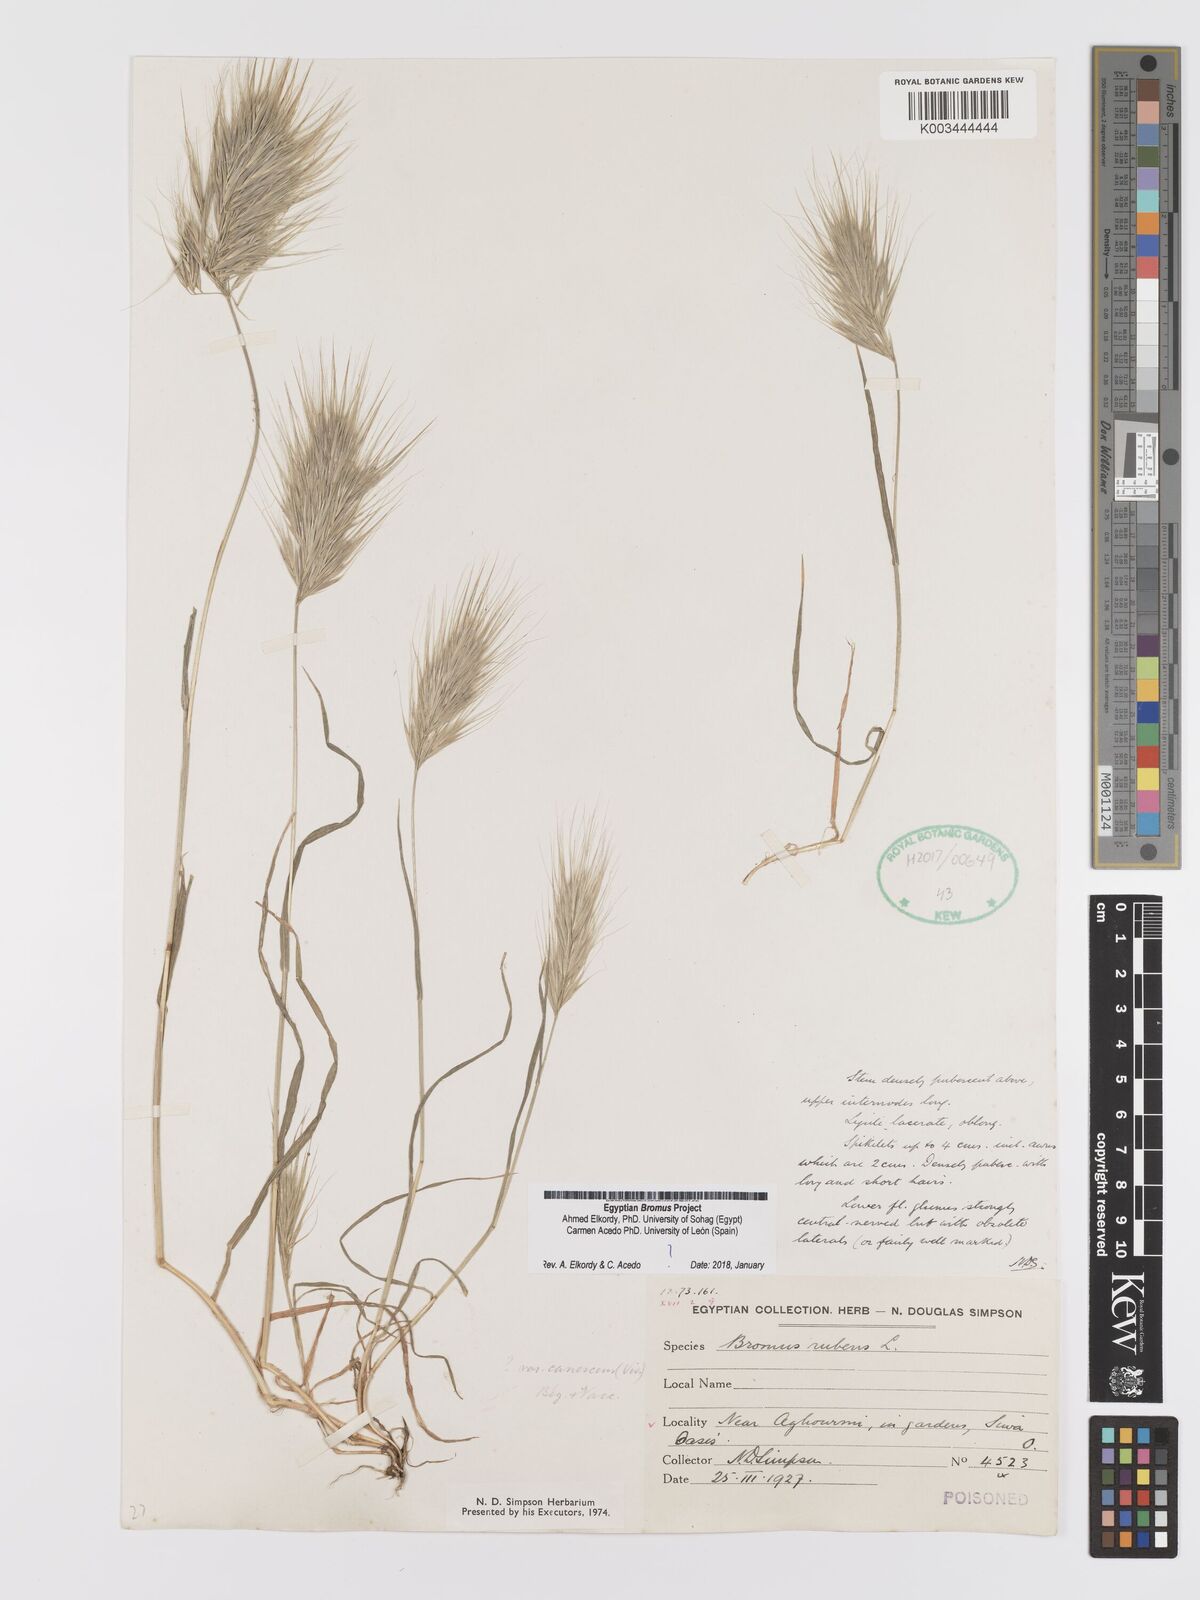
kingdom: Plantae
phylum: Tracheophyta
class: Liliopsida
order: Poales
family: Poaceae
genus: Bromus
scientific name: Bromus rubens
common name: Red brome
